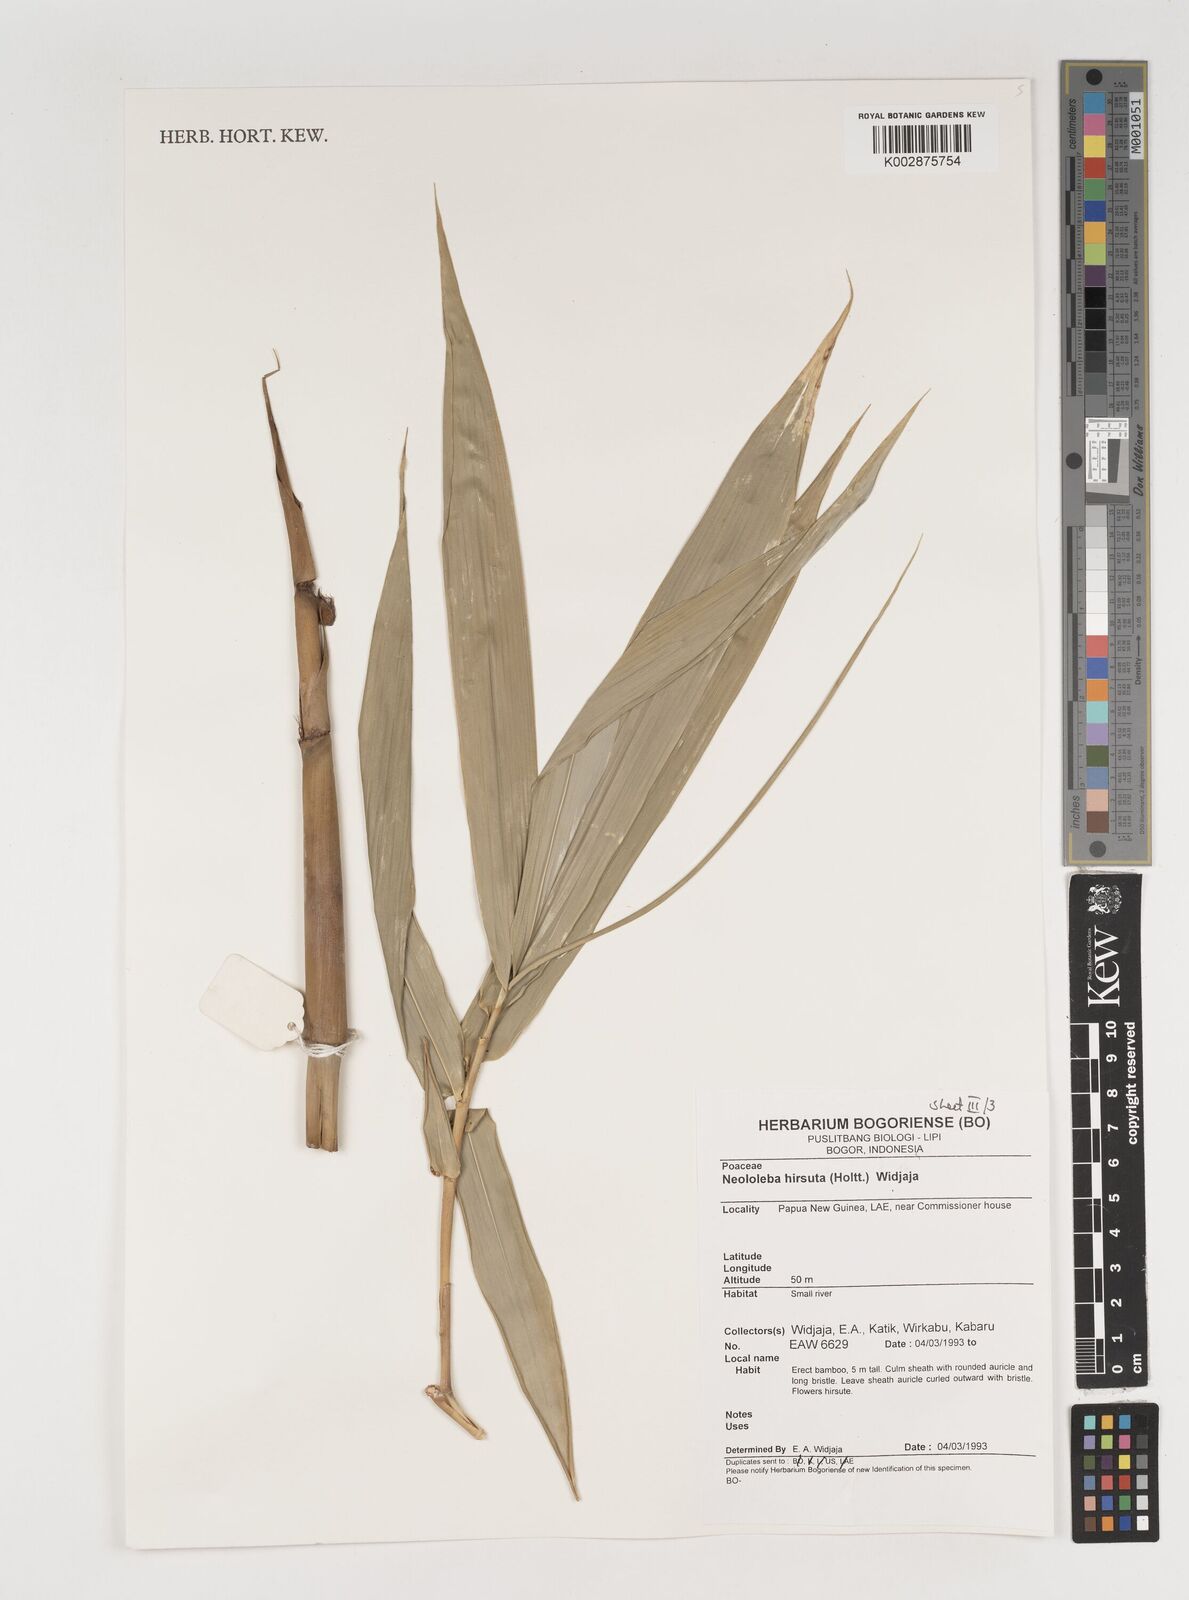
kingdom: Plantae
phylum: Tracheophyta
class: Liliopsida
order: Poales
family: Poaceae
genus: Neololeba
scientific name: Neololeba hirsuta
